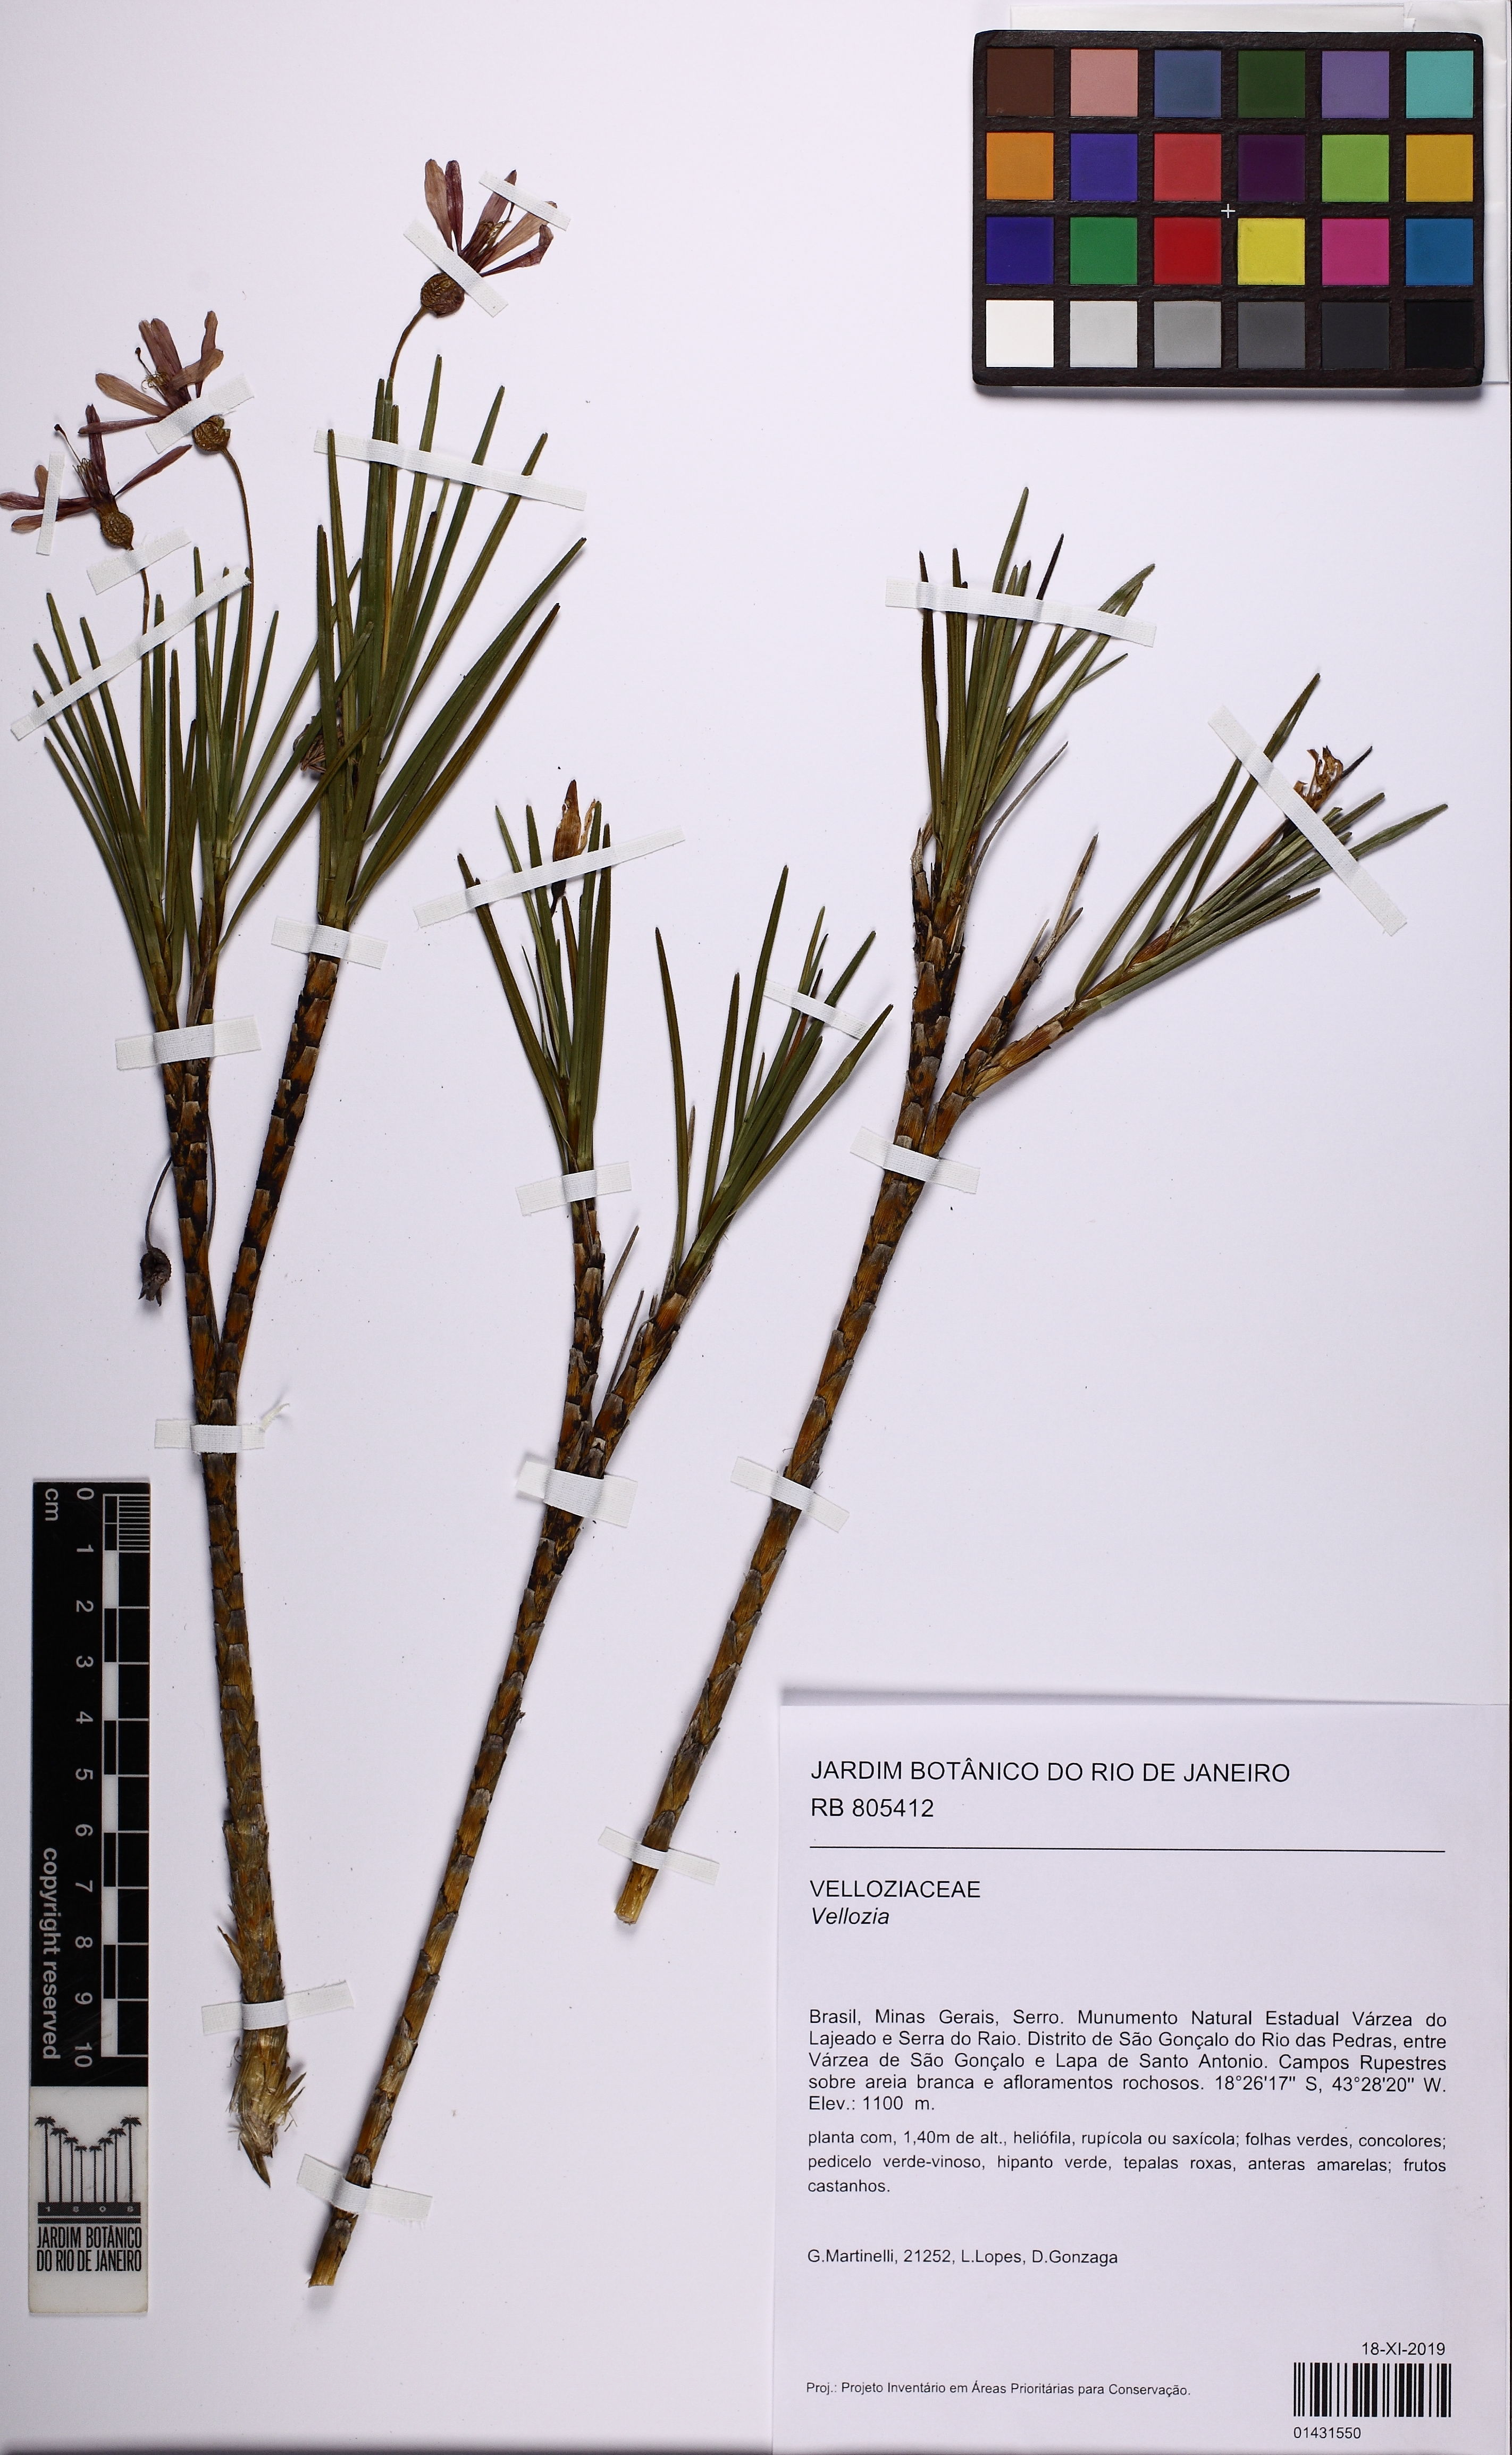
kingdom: Plantae
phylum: Tracheophyta
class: Liliopsida
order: Pandanales
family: Velloziaceae
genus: Vellozia
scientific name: Vellozia
